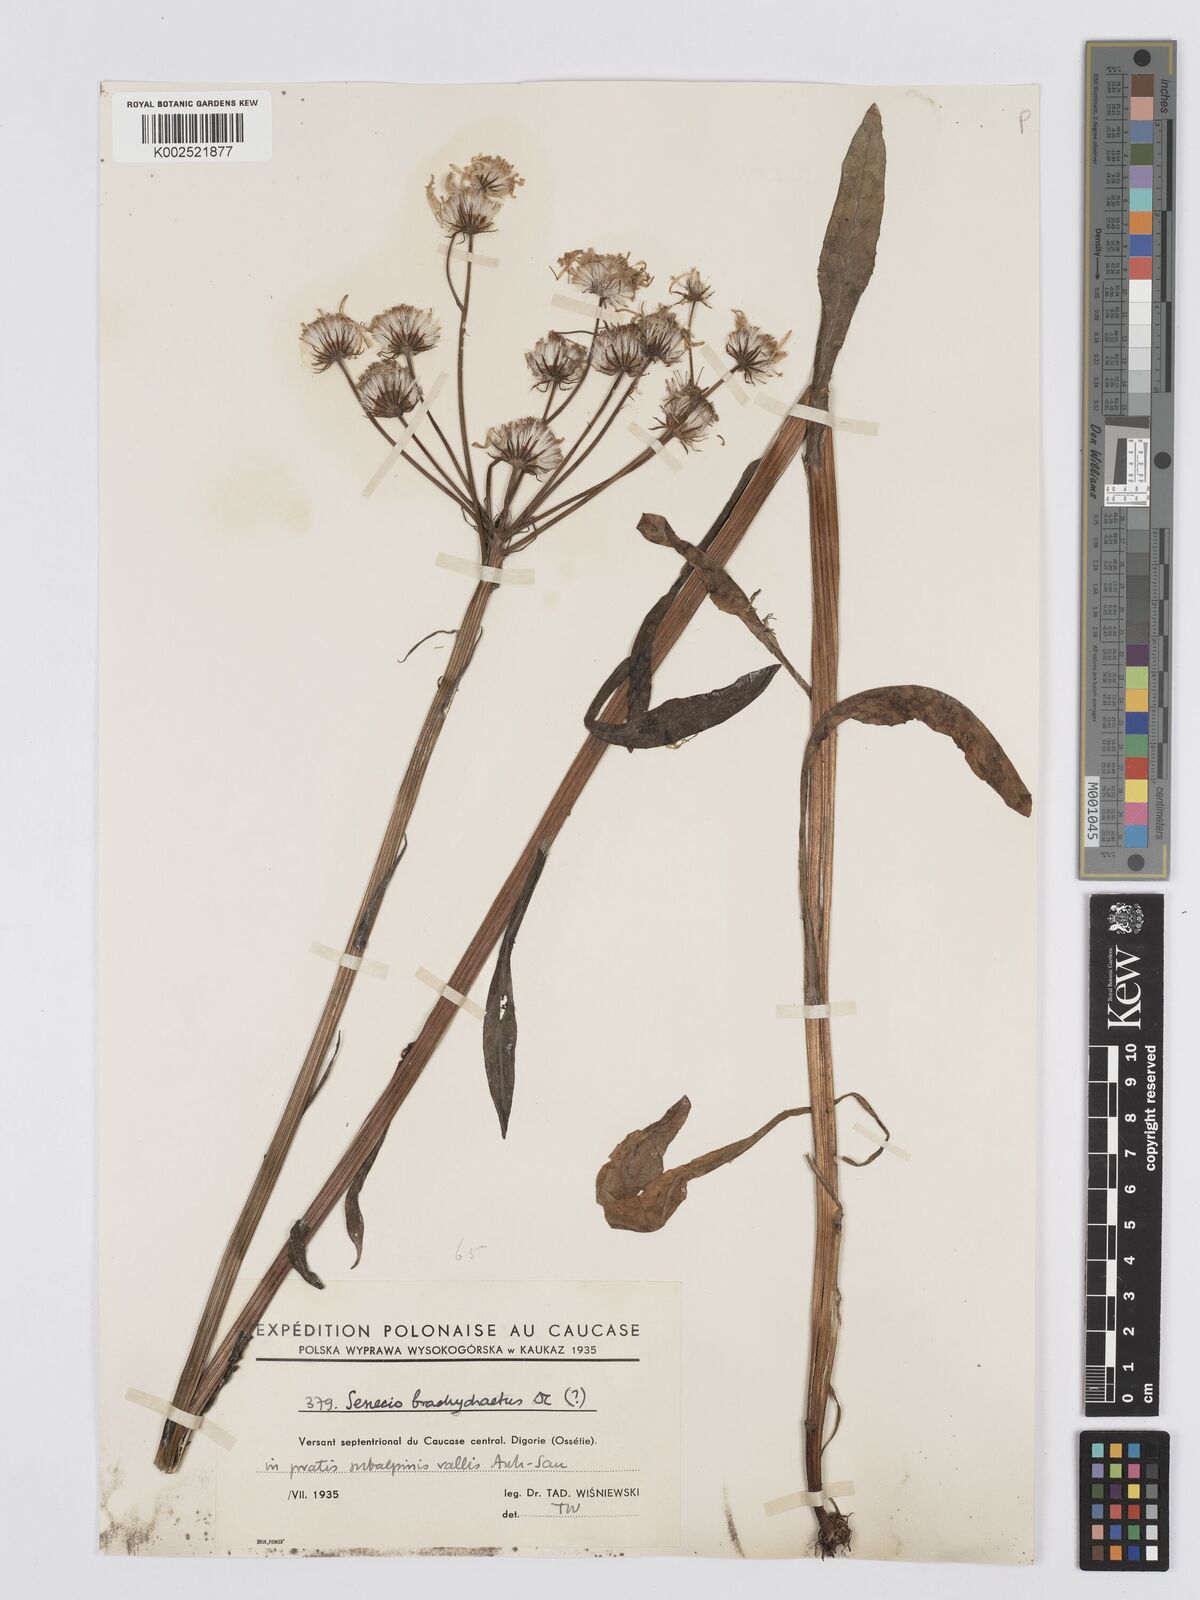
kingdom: Plantae
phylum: Tracheophyta
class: Magnoliopsida
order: Asterales
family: Asteraceae
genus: Tephroseris
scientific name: Tephroseris cladobotrys
